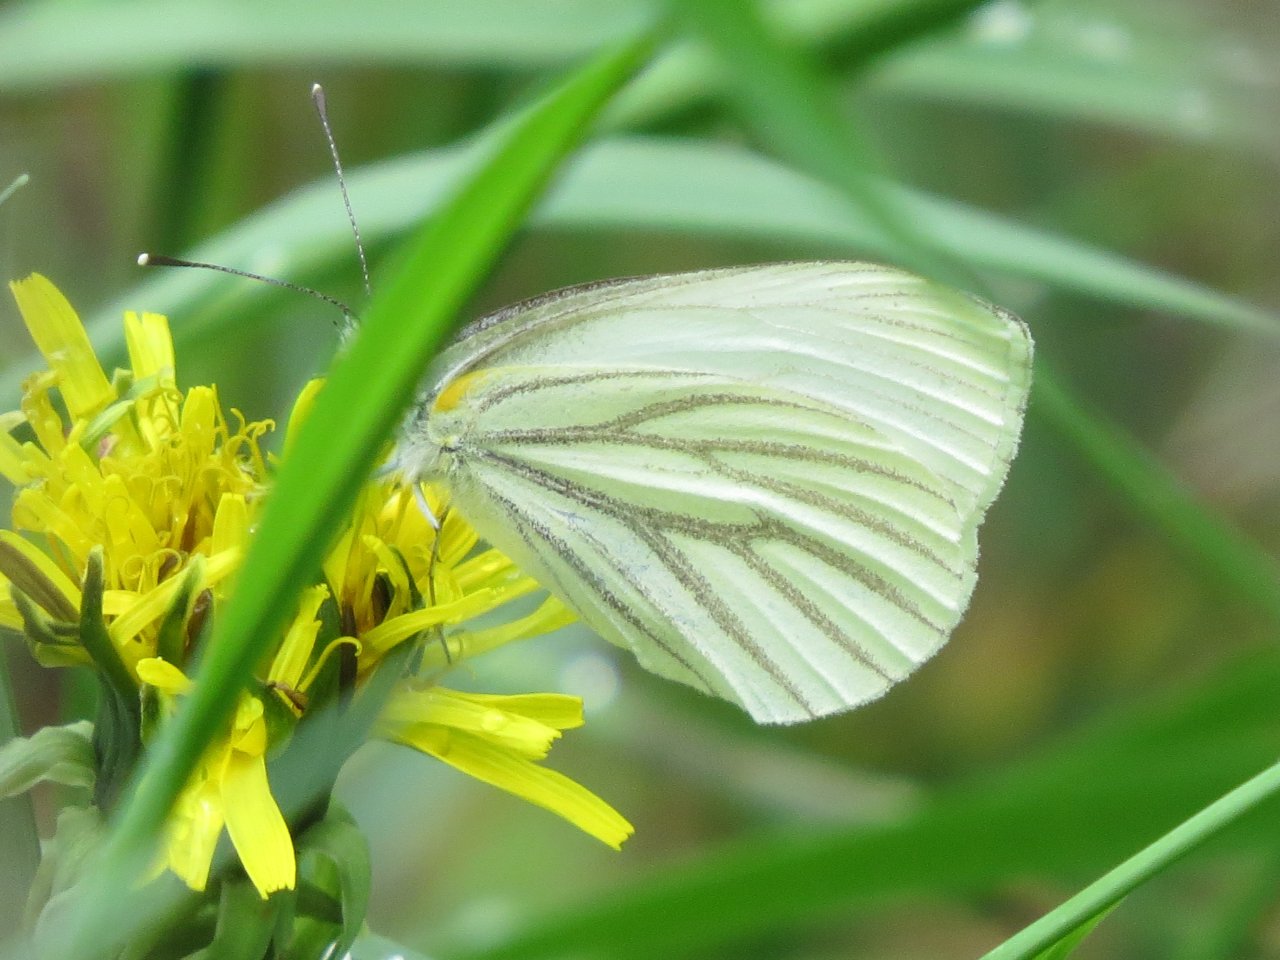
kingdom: Animalia
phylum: Arthropoda
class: Insecta
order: Lepidoptera
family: Pieridae
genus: Pieris
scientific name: Pieris oleracea
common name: Mustard White
